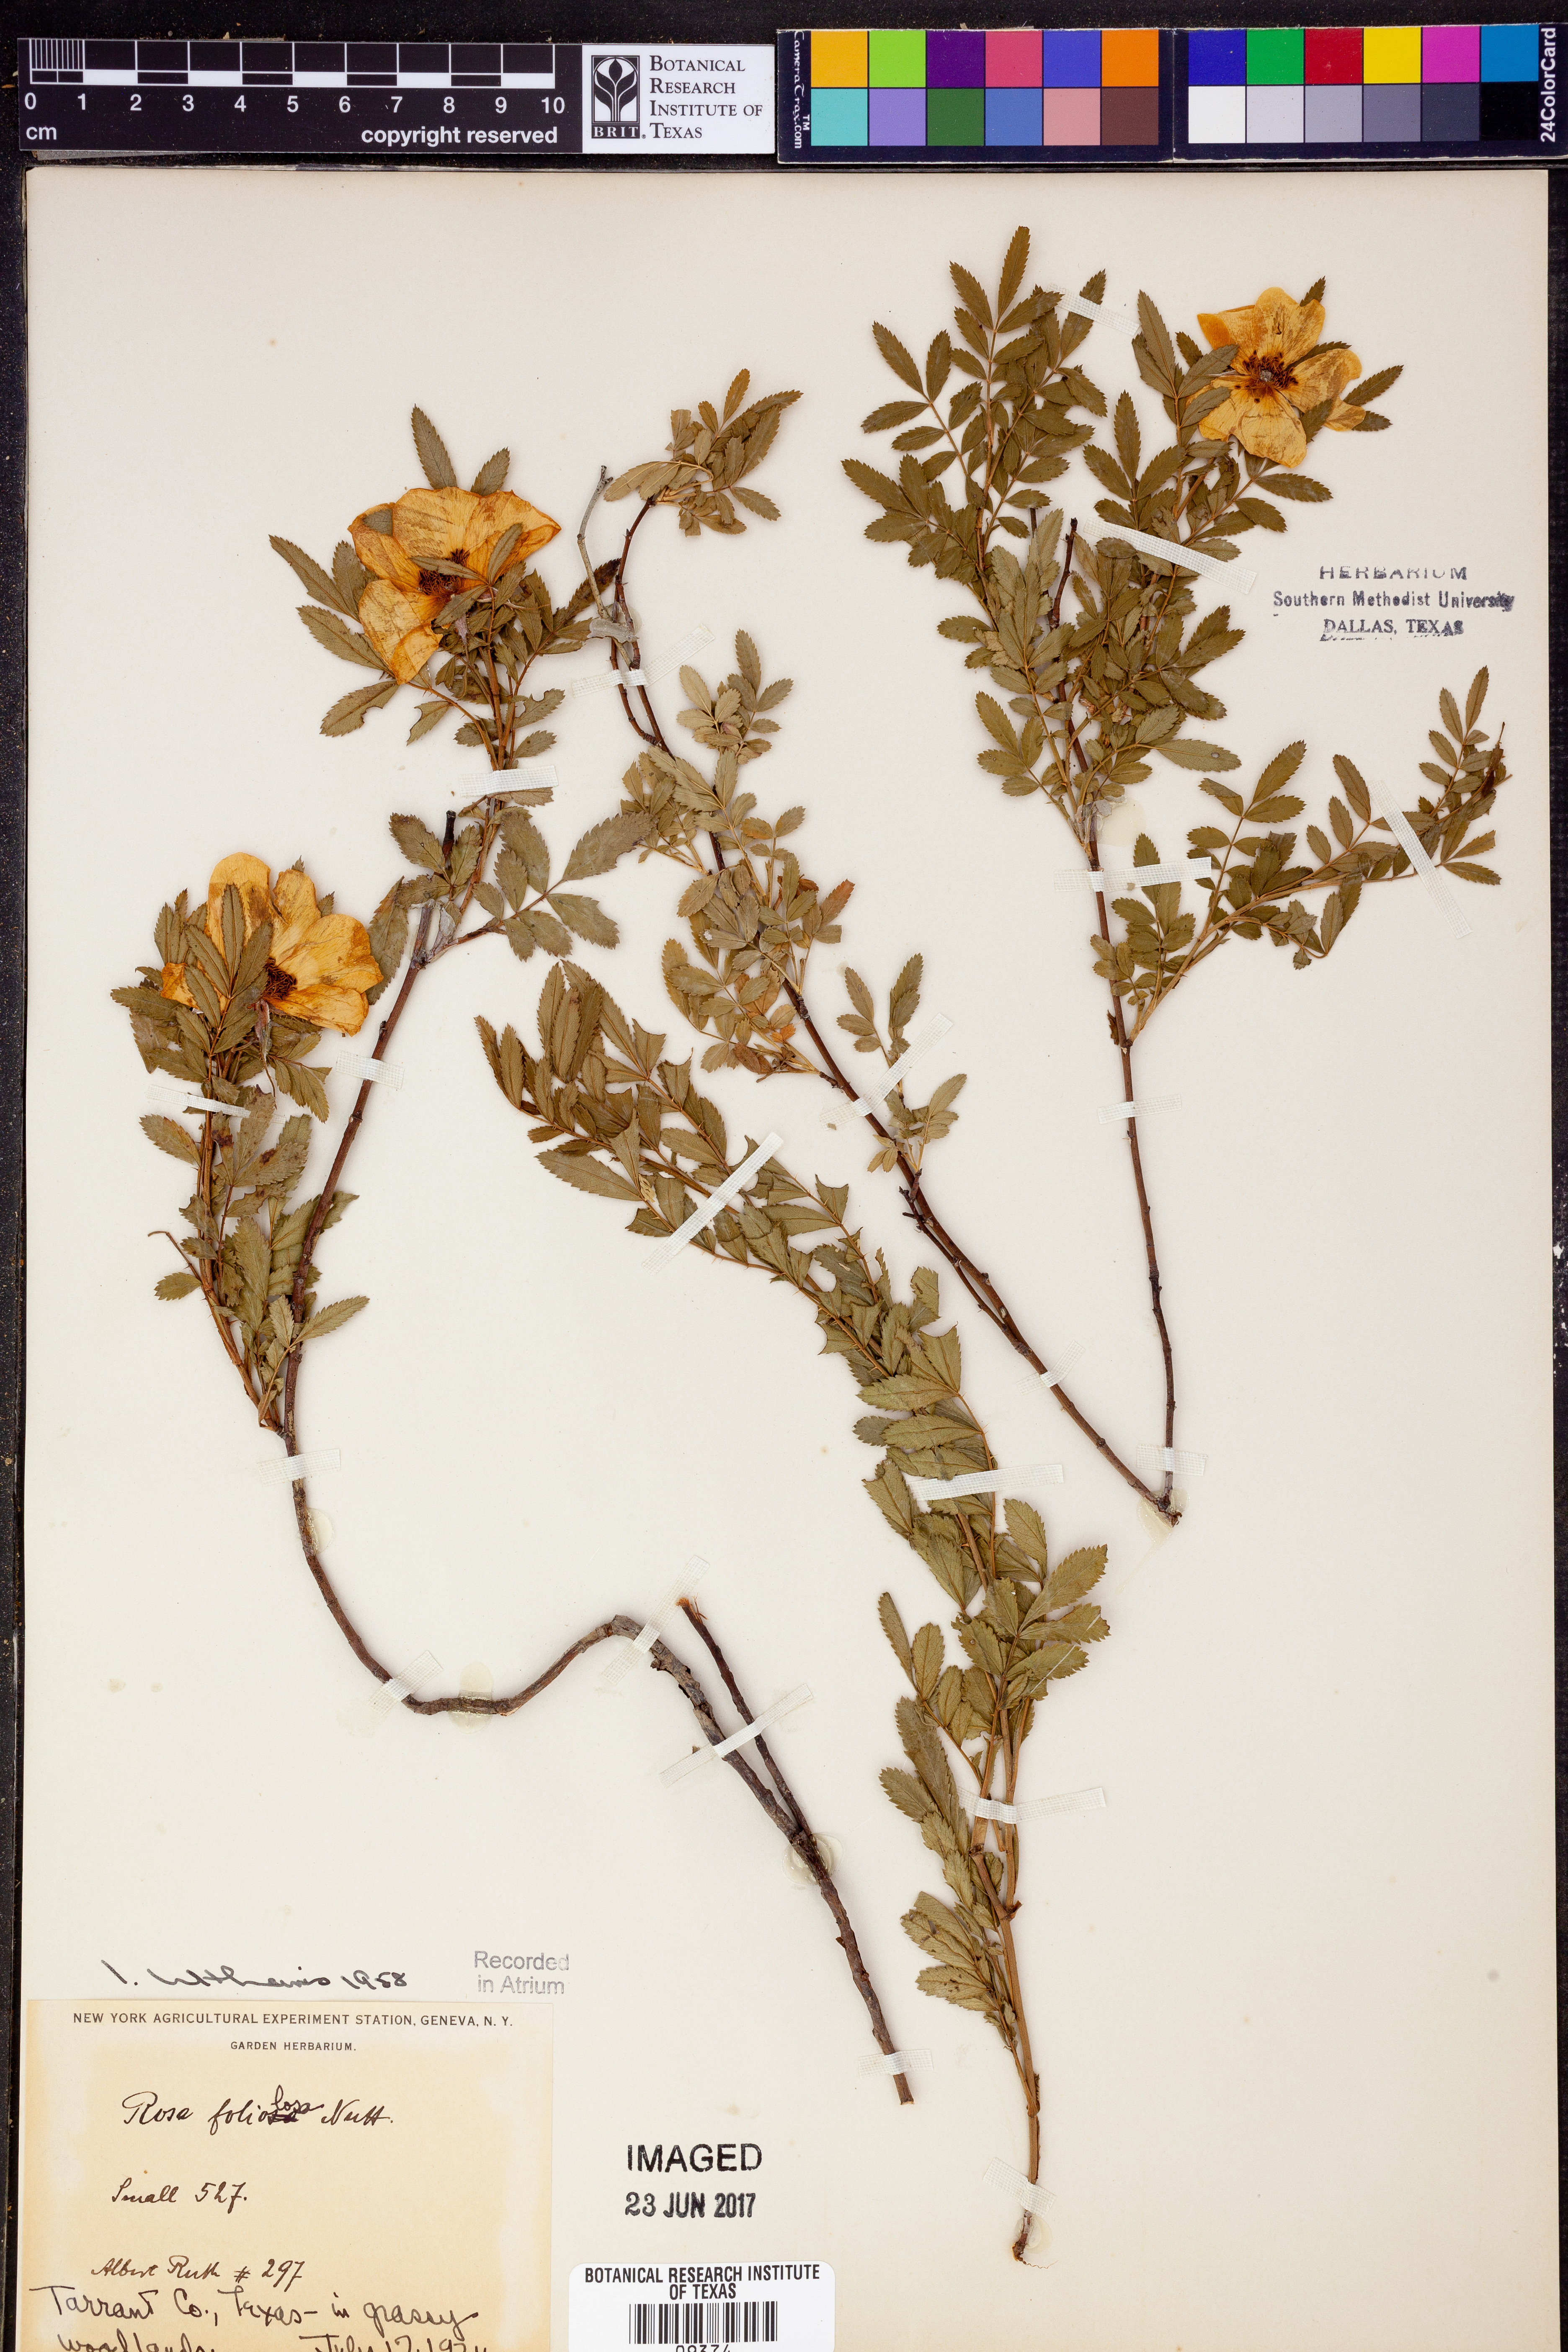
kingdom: Plantae
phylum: Tracheophyta
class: Magnoliopsida
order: Rosales
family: Rosaceae
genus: Rosa
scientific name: Rosa foliolosa
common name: White prairie rose
